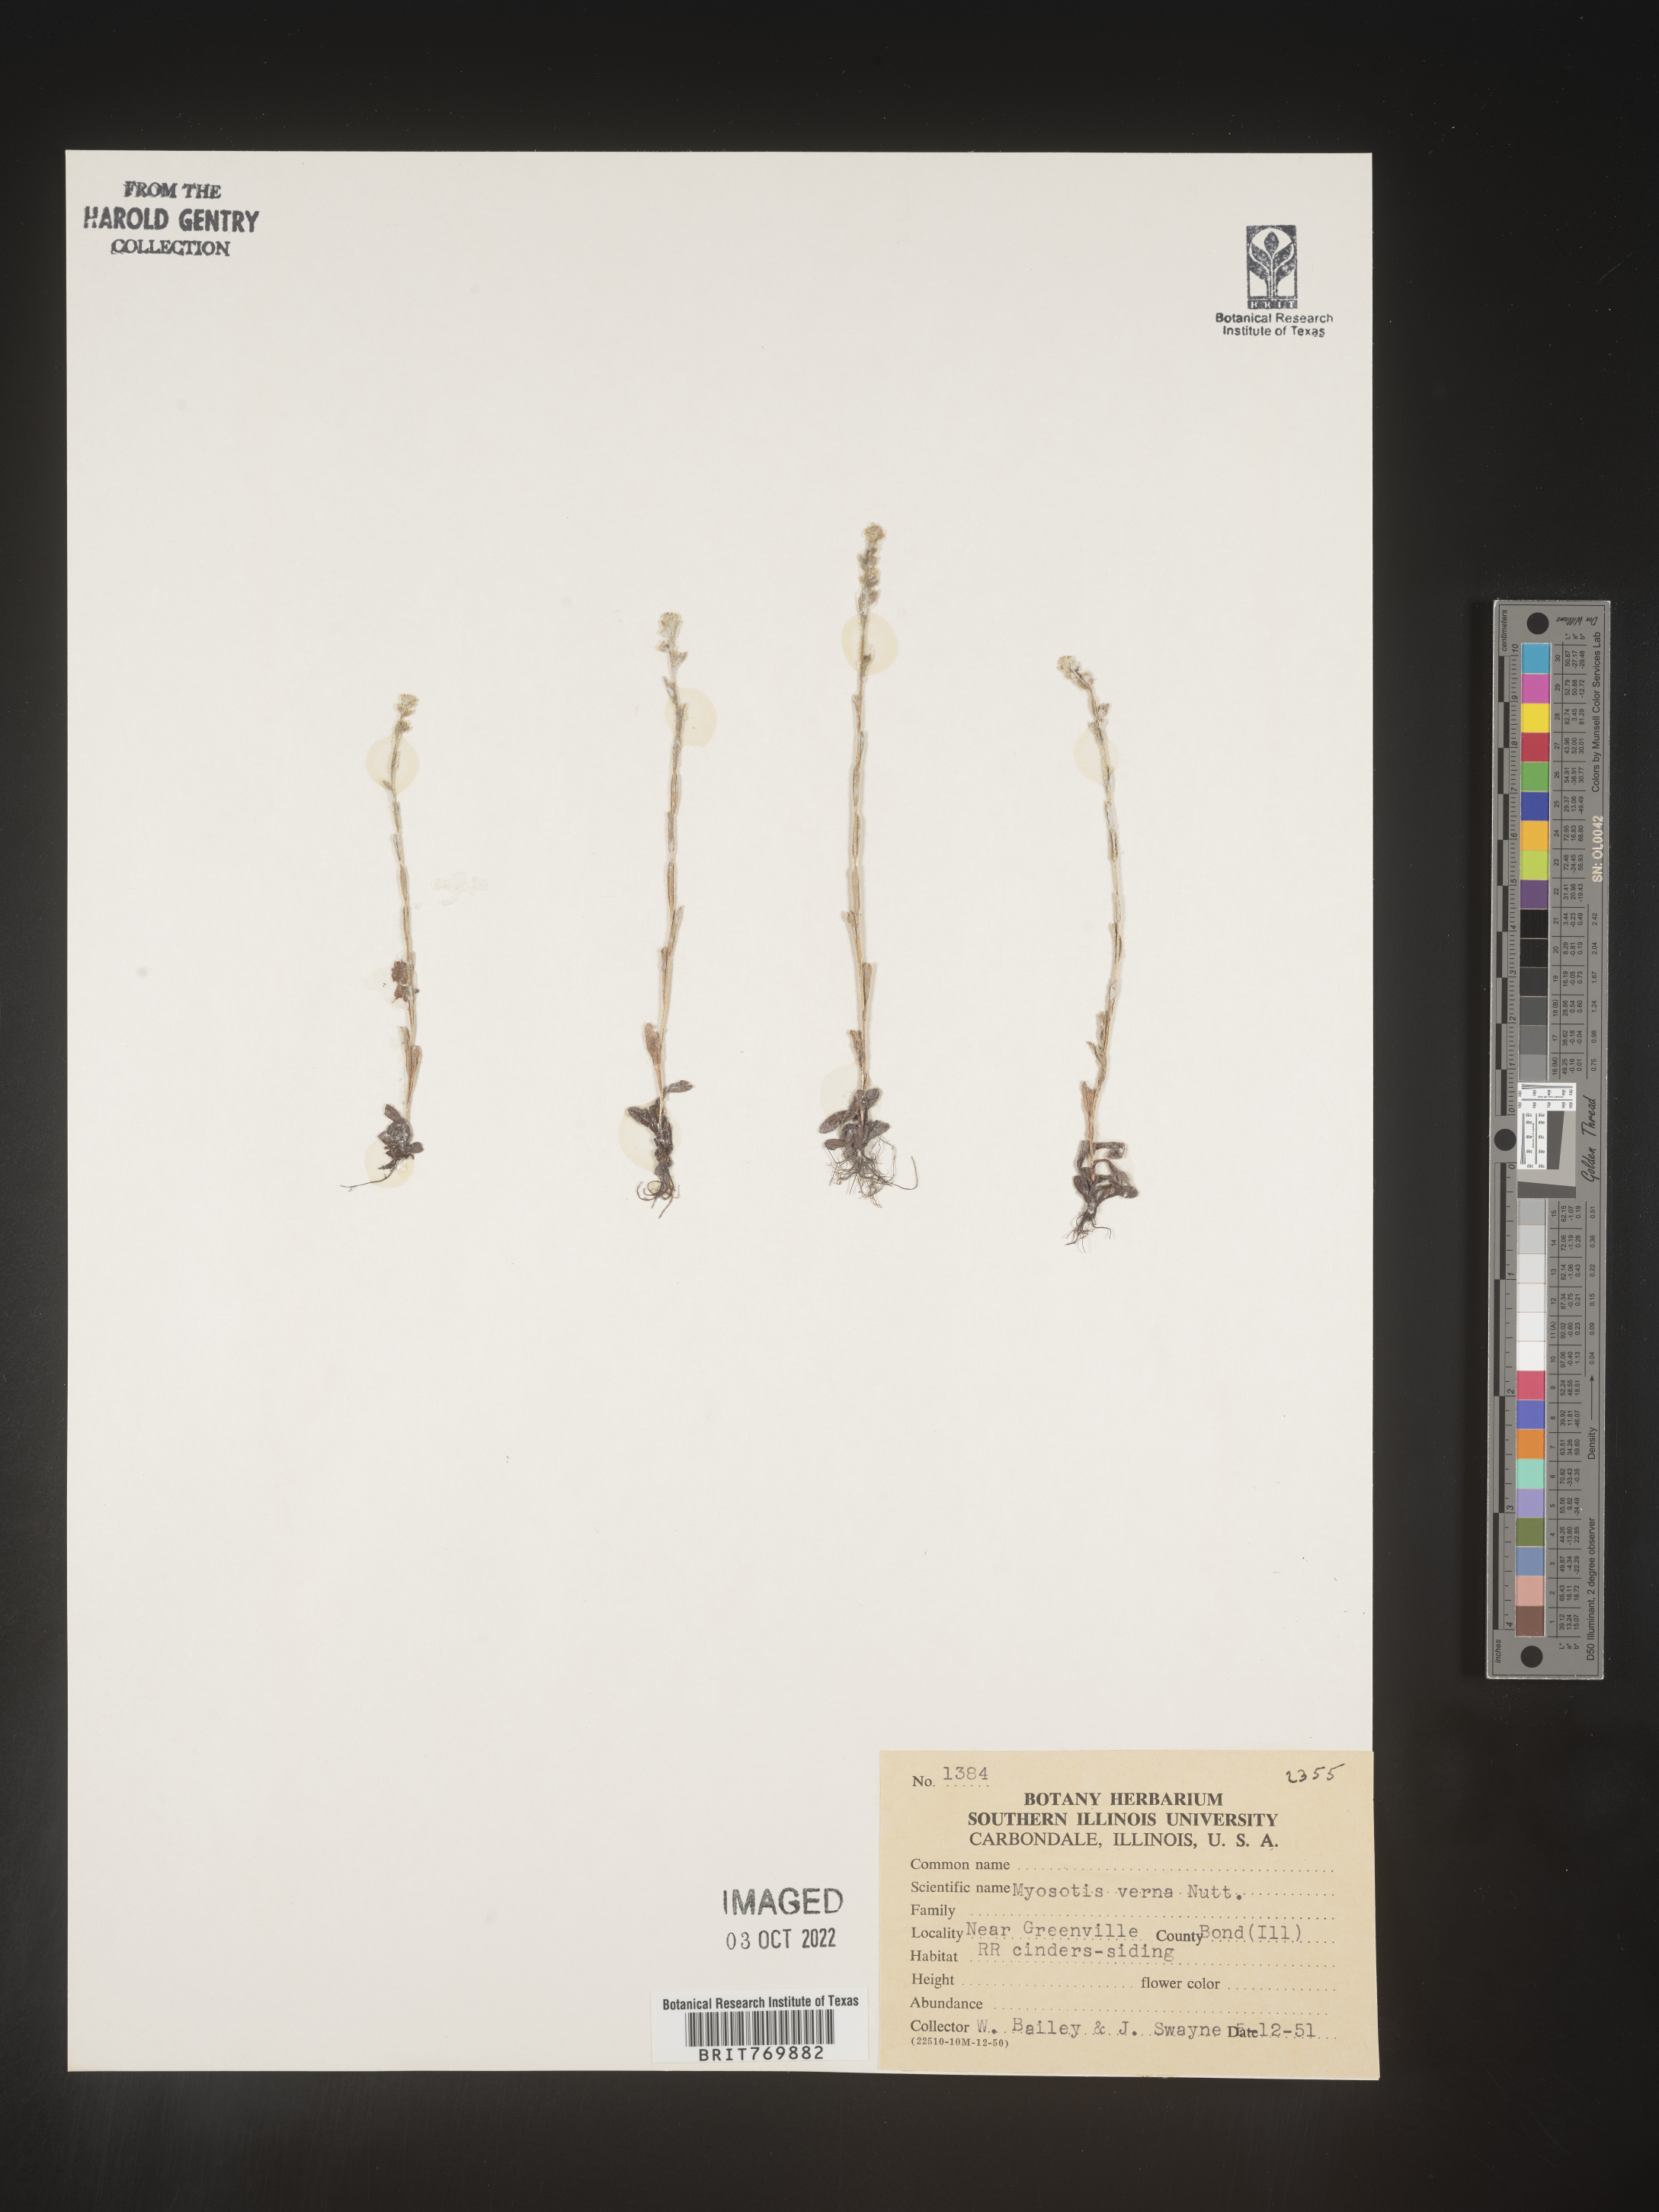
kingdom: Plantae
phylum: Tracheophyta
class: Magnoliopsida
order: Boraginales
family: Boraginaceae
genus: Myosotis
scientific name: Myosotis verna
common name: Early forget-me-not
